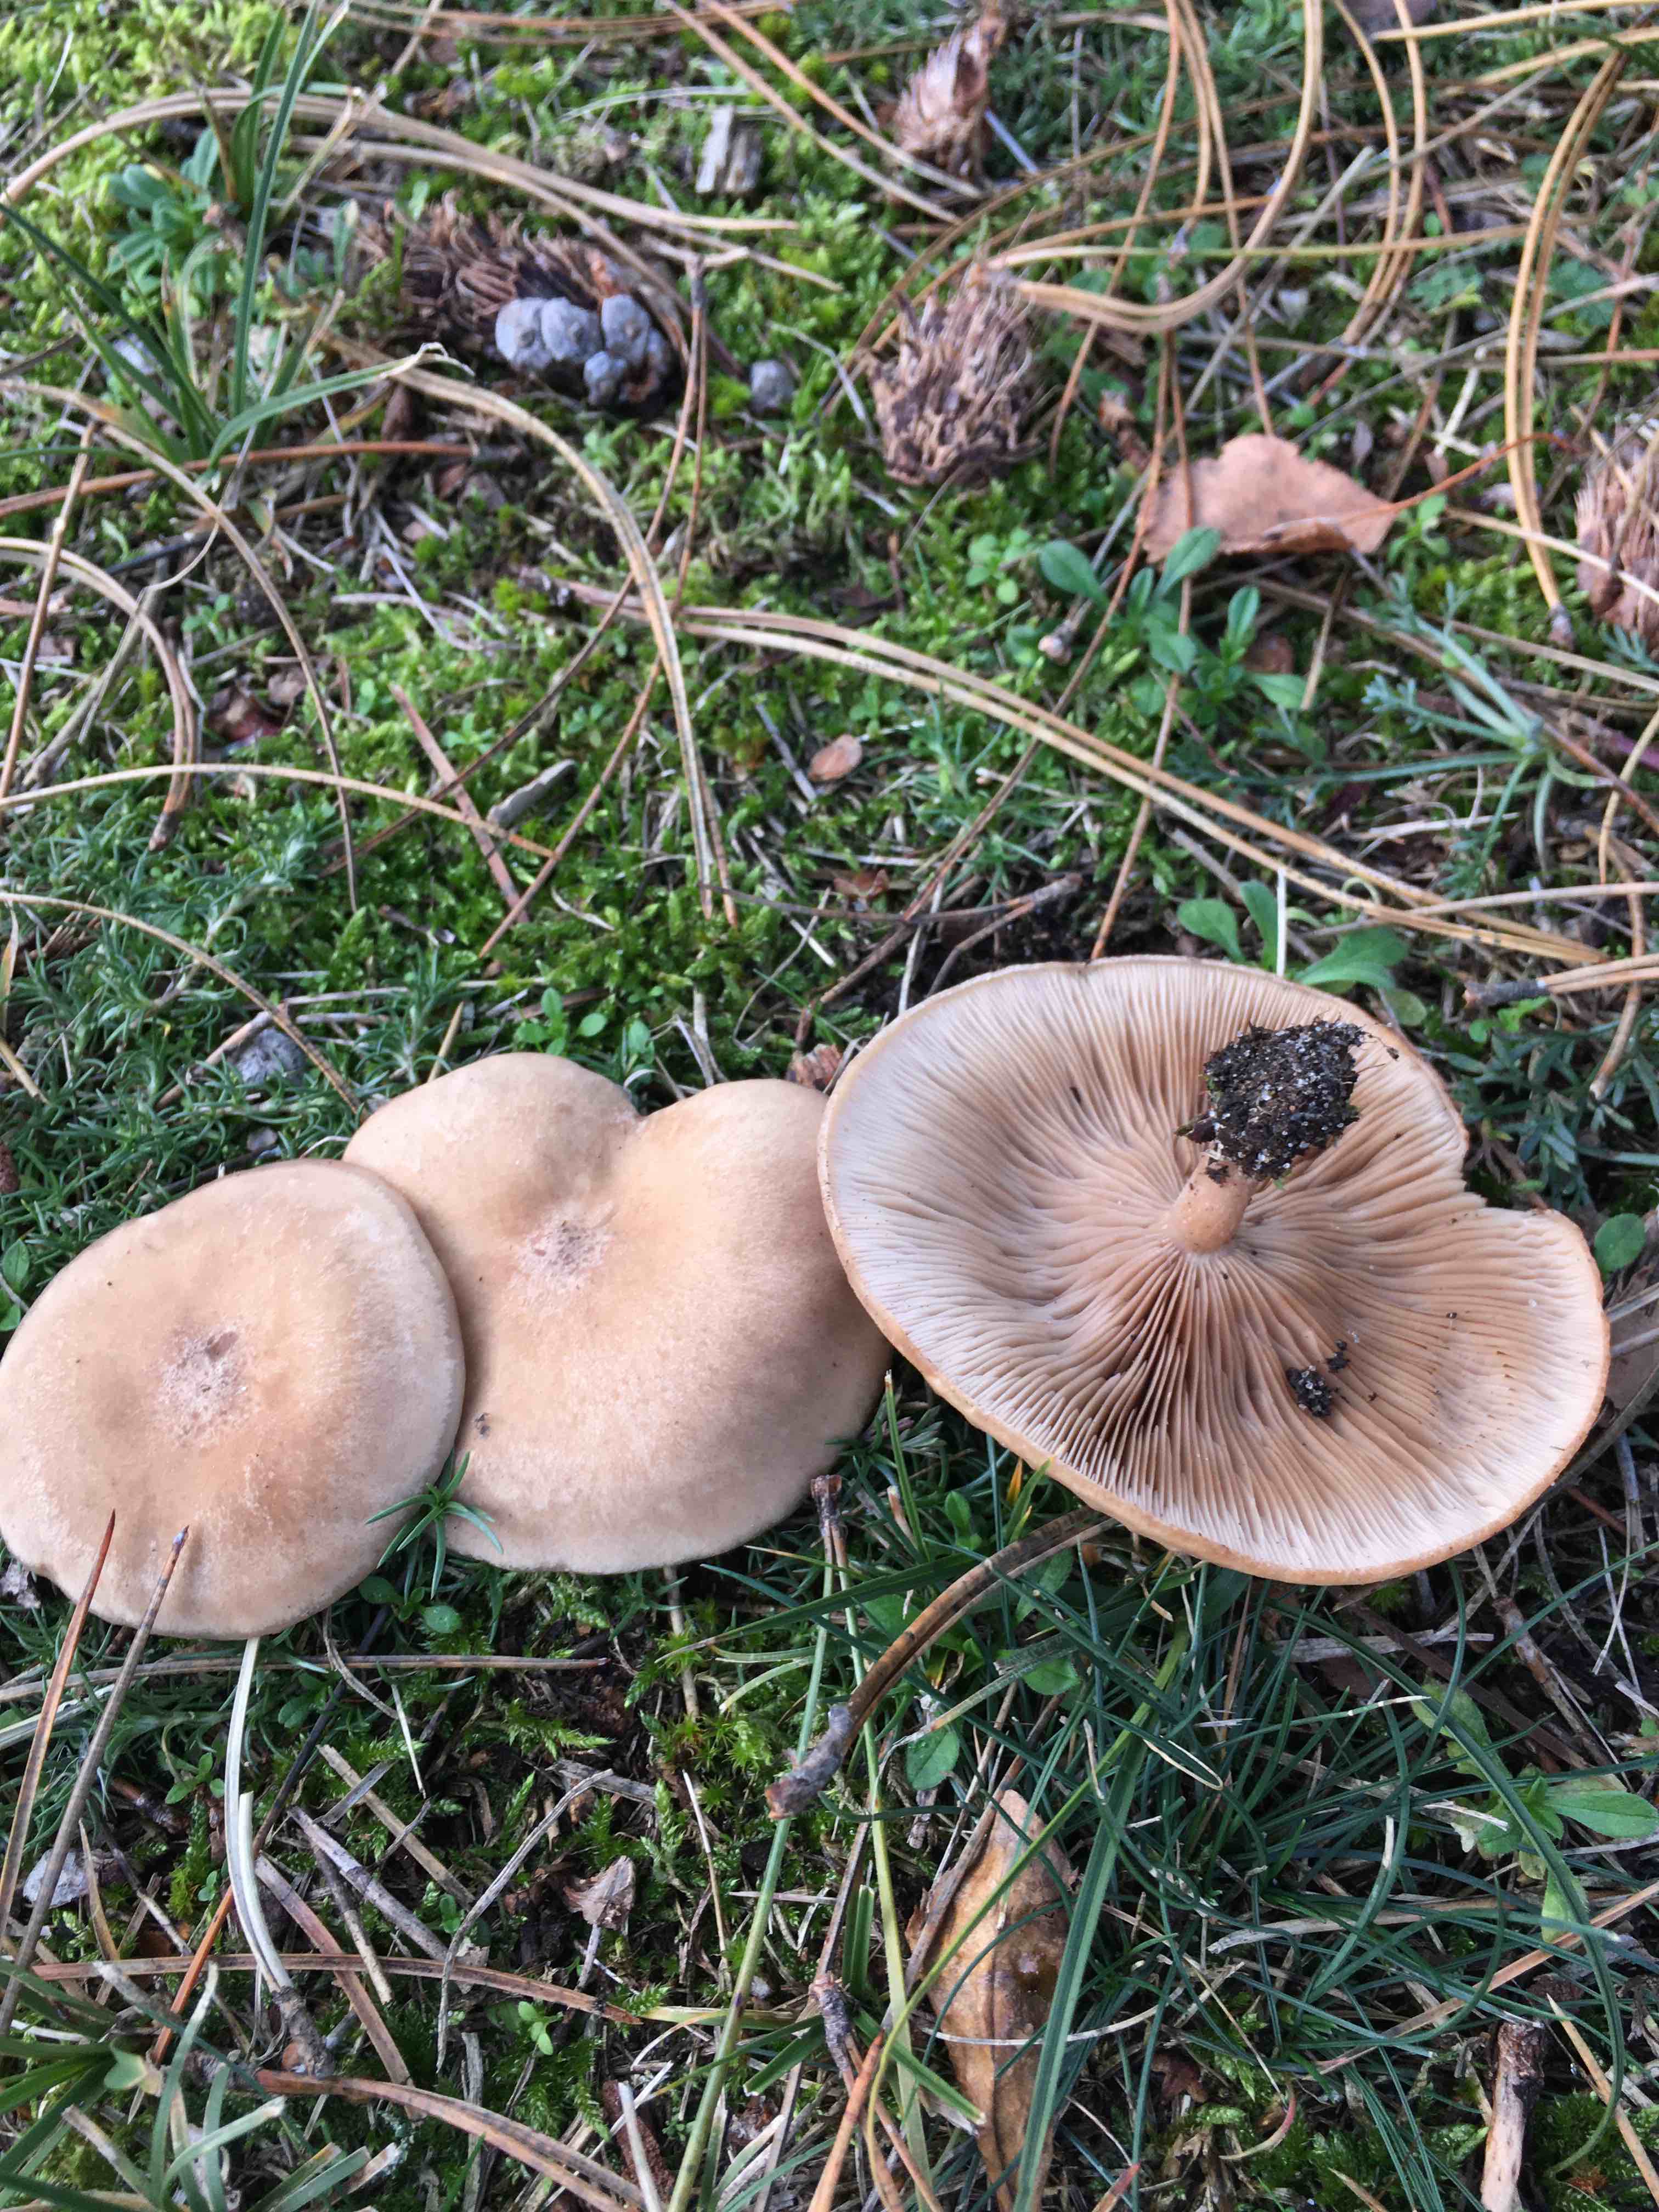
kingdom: Fungi
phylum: Basidiomycota
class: Agaricomycetes
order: Agaricales
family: Tricholomataceae
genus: Lepista
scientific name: Lepista panaeolus
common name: marmoreret hekseringshat
